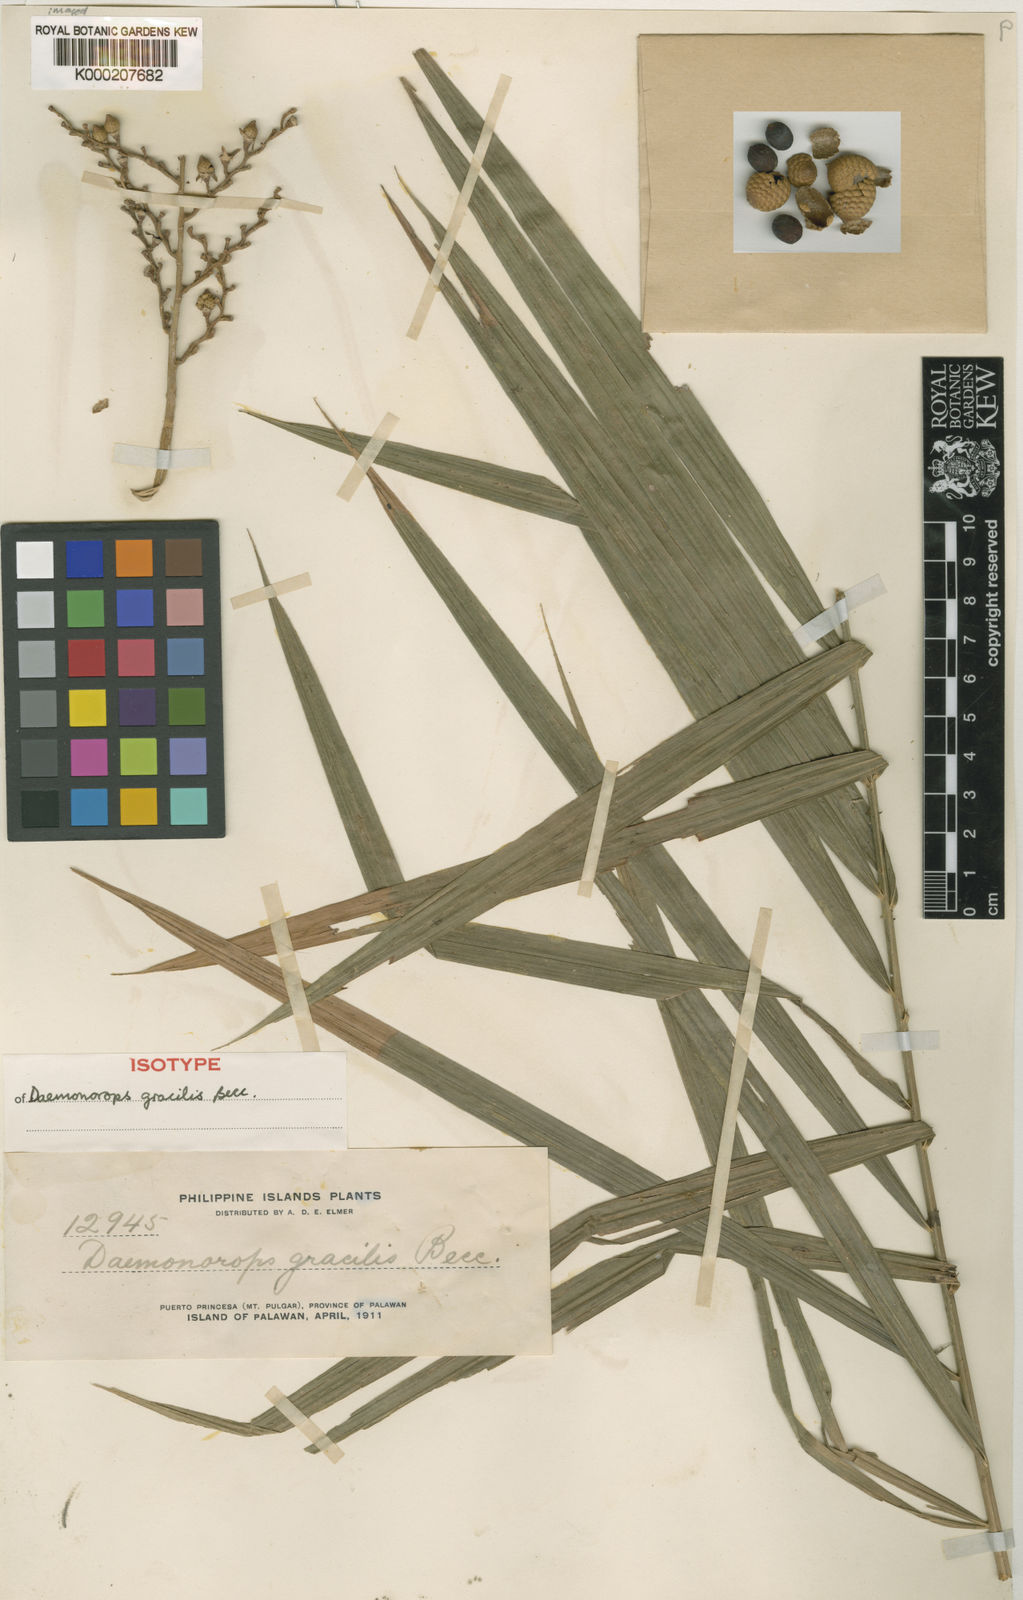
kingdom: Plantae
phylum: Tracheophyta
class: Liliopsida
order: Arecales
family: Arecaceae
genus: Calamus
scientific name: Calamus oblongus
